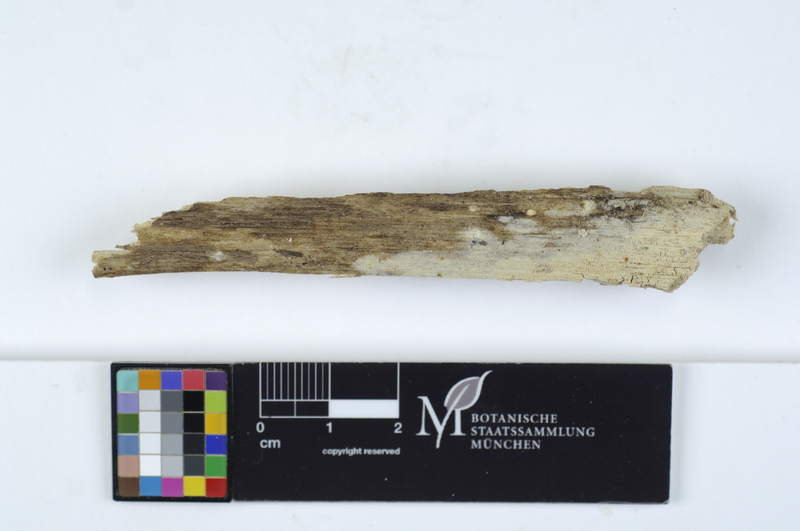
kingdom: Fungi
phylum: Basidiomycota
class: Agaricomycetes
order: Russulales
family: Gloeodontiaceae
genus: Gloeodontia
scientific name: Gloeodontia columbiensis
